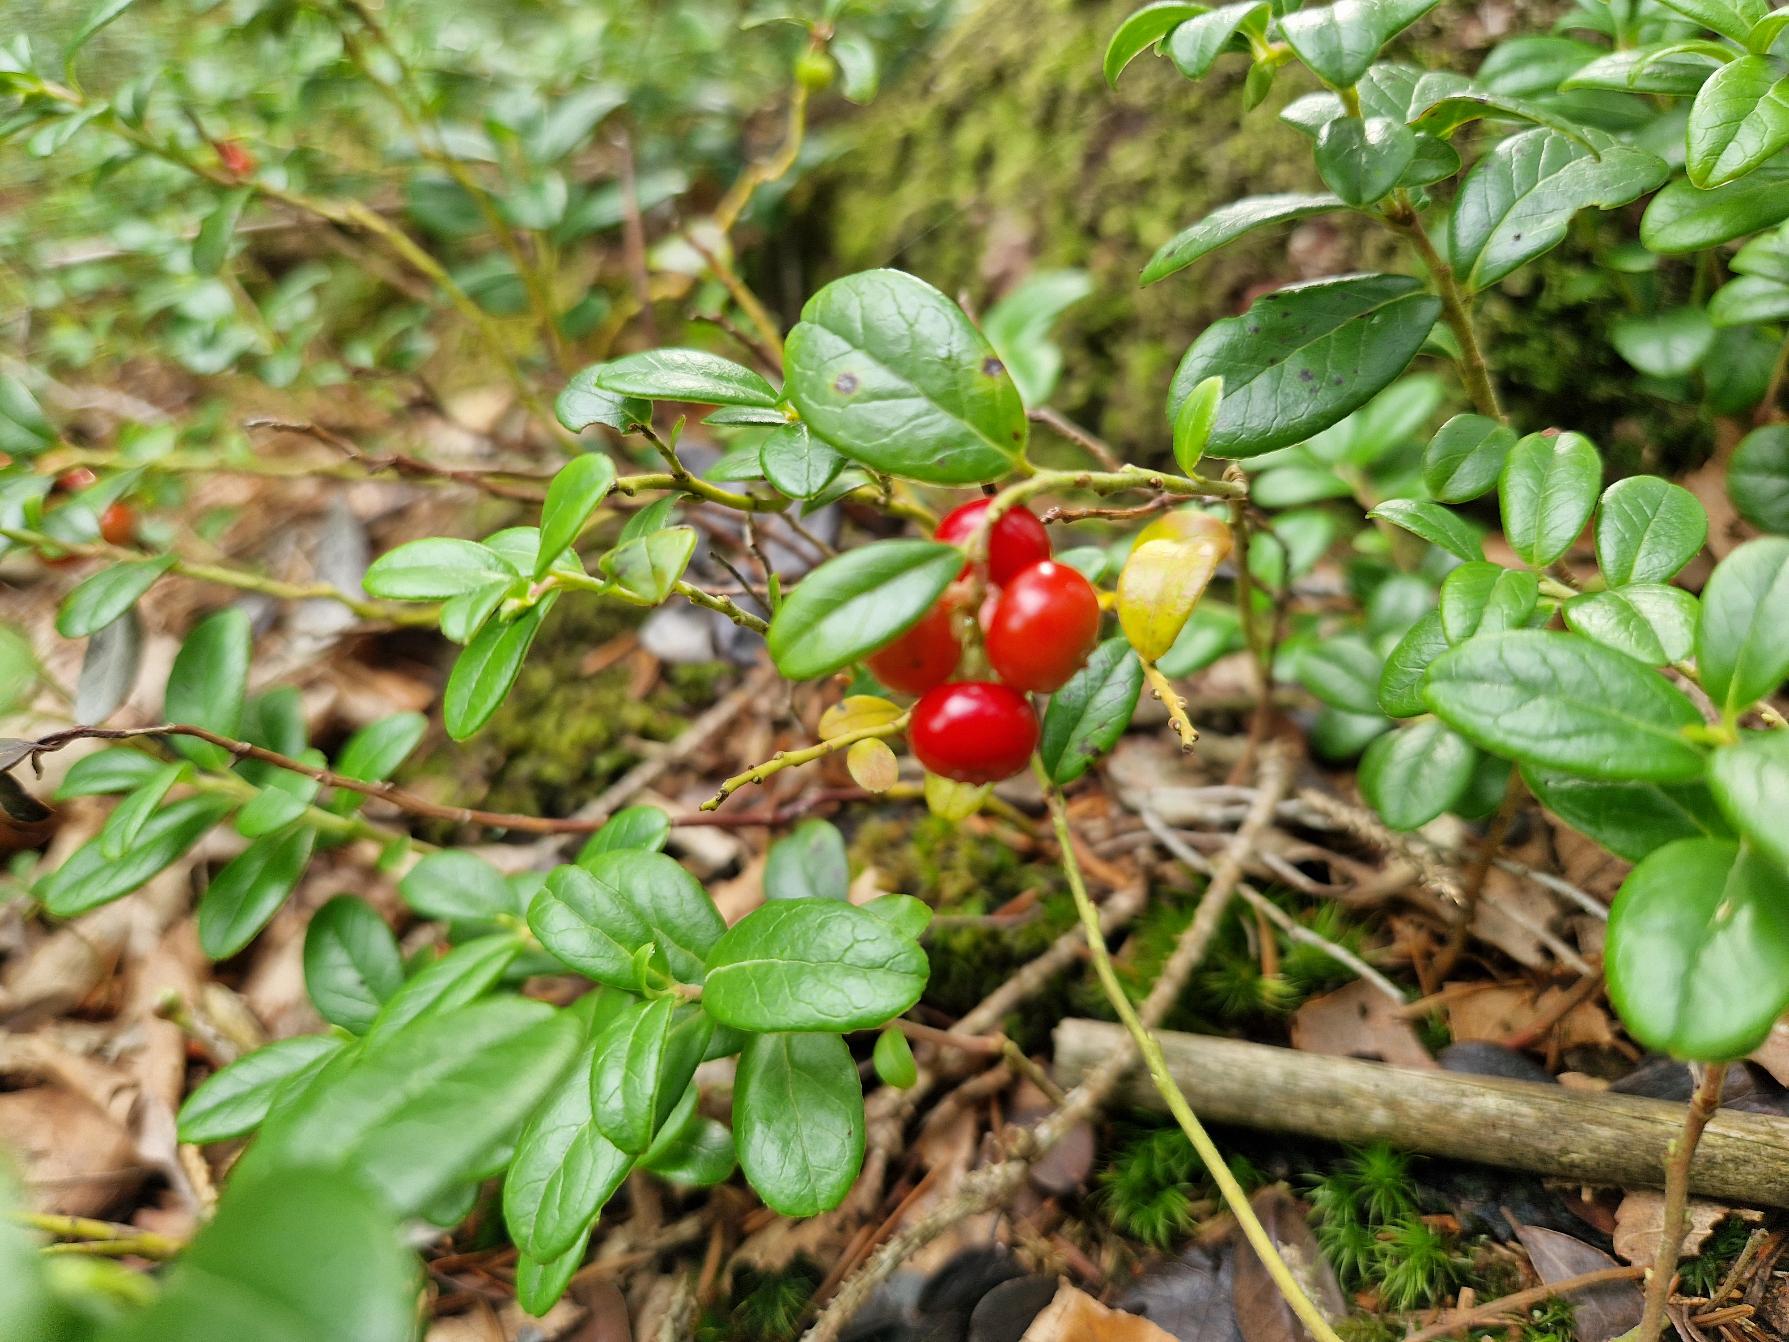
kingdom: Plantae
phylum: Tracheophyta
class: Magnoliopsida
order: Ericales
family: Ericaceae
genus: Vaccinium
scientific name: Vaccinium vitis-idaea
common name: Tyttebær
